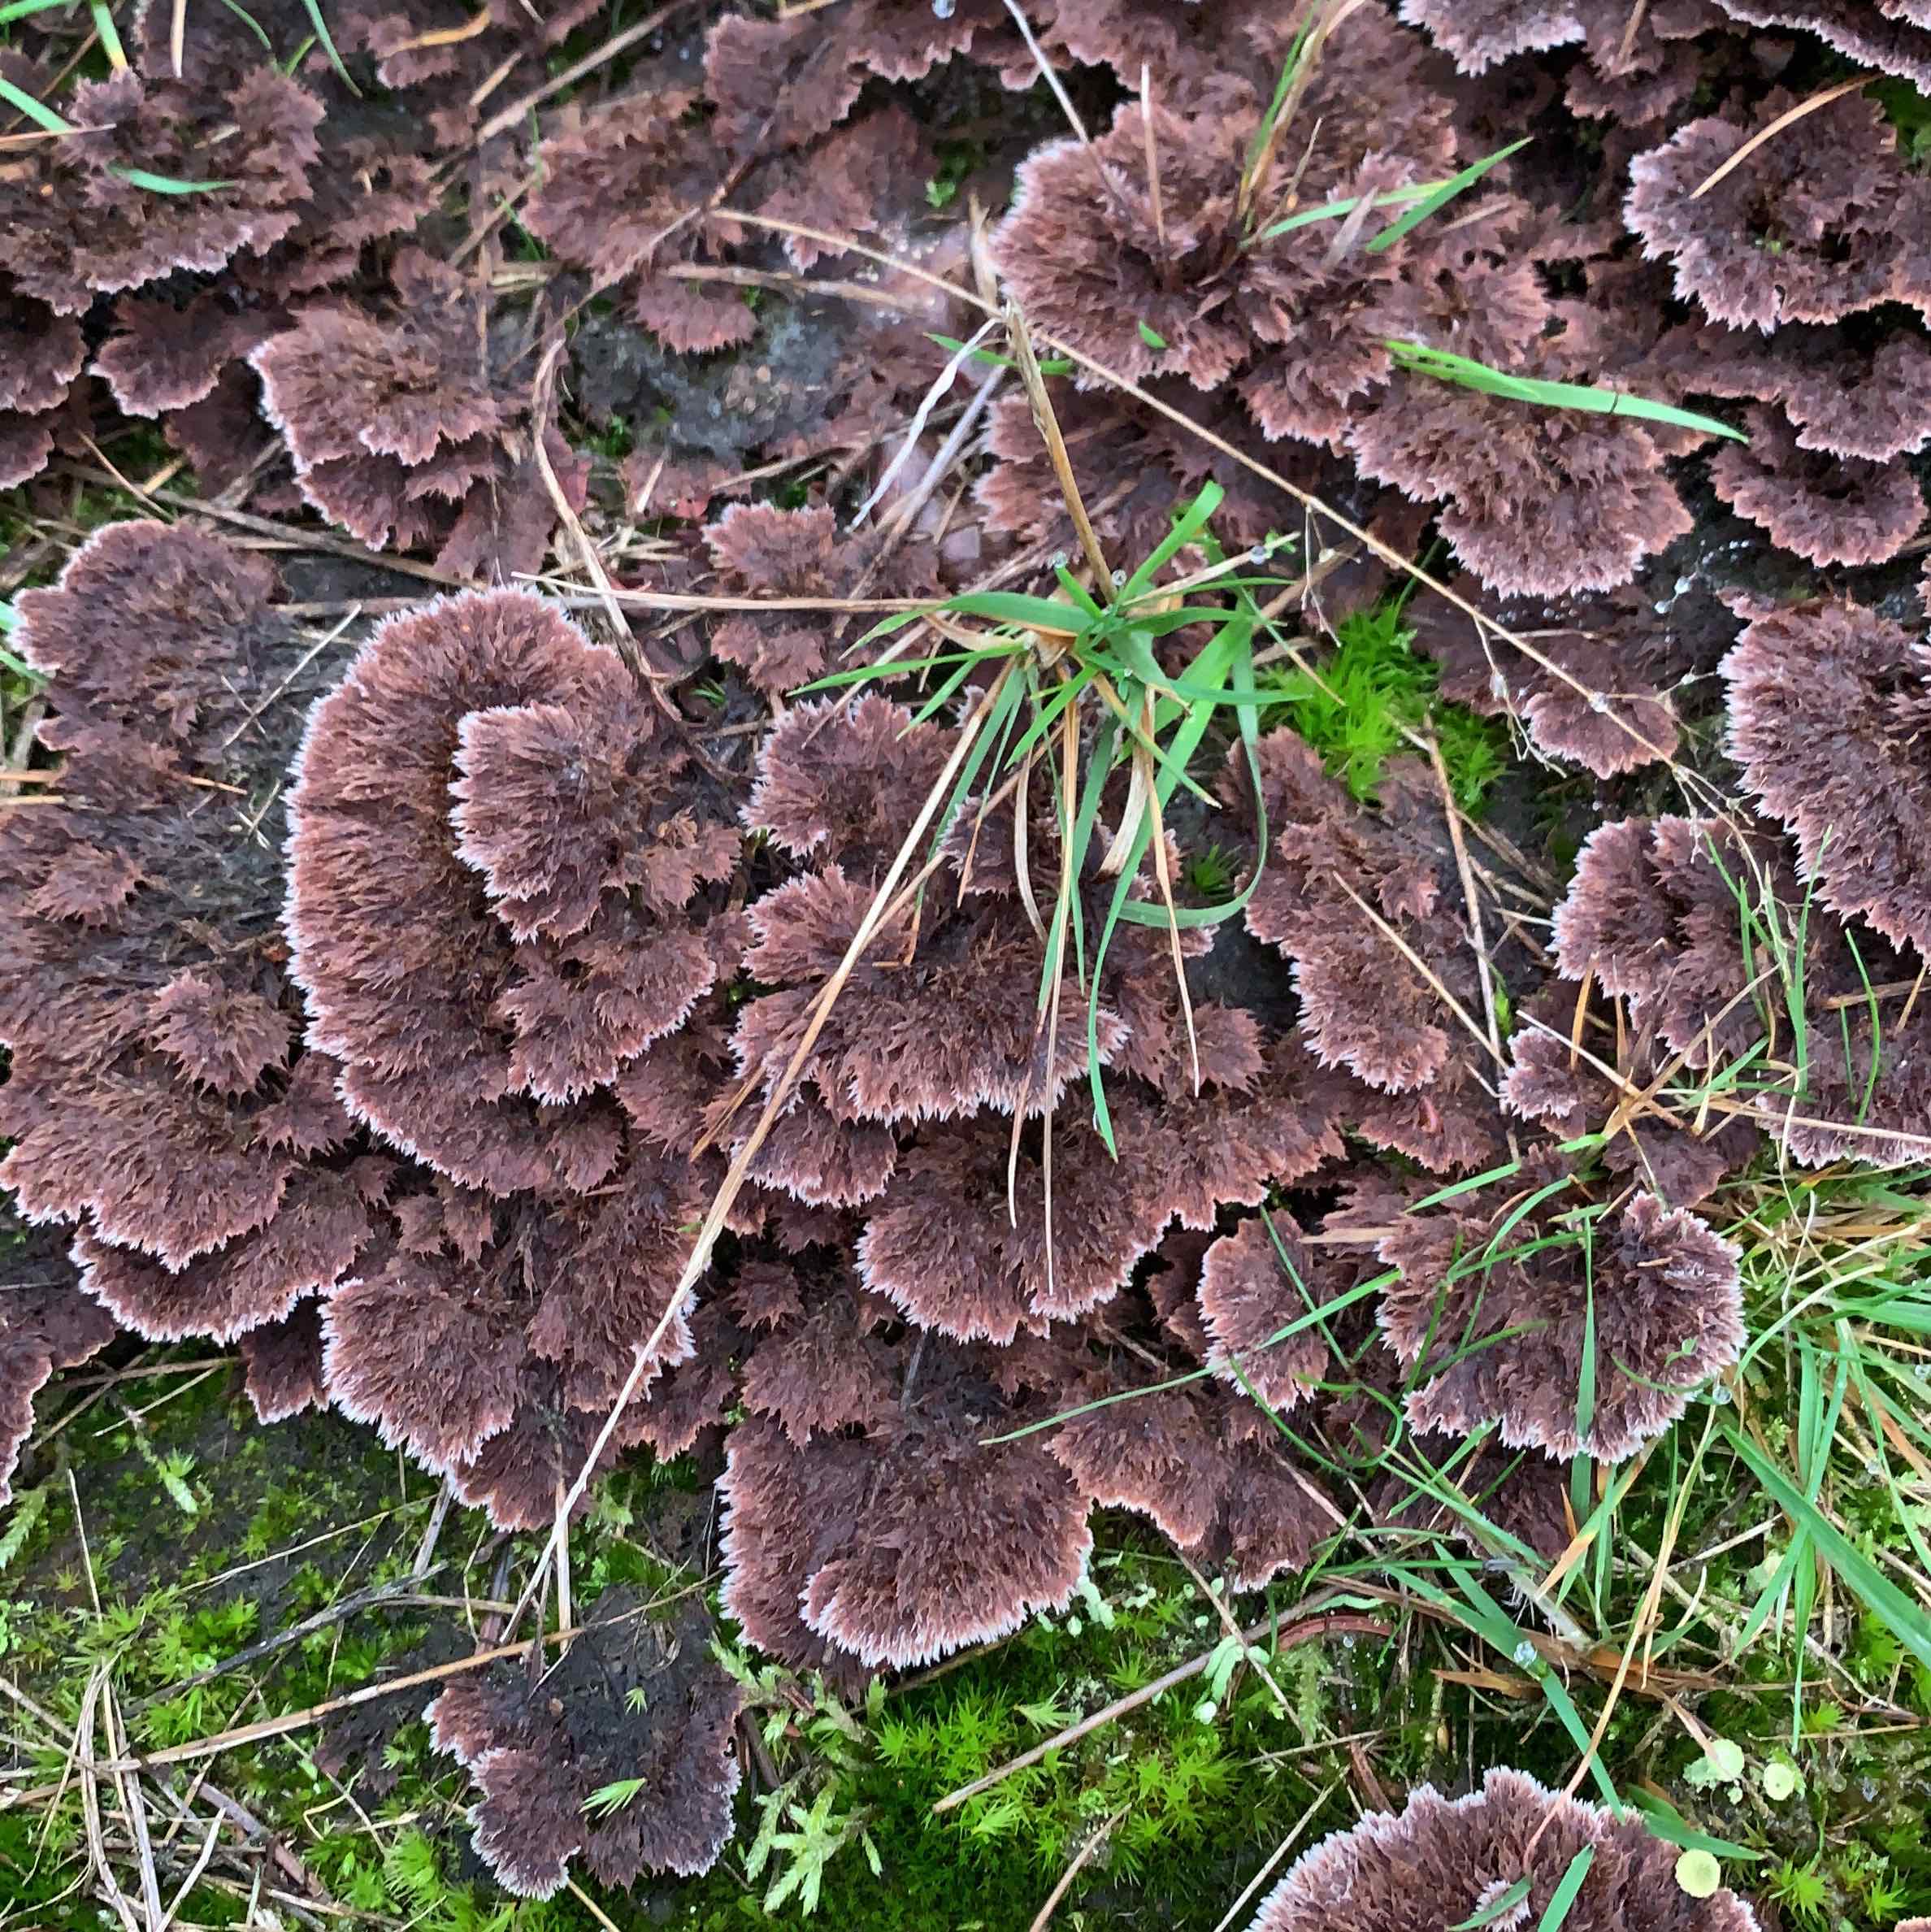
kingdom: Fungi
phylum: Basidiomycota
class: Agaricomycetes
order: Thelephorales
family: Thelephoraceae
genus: Thelephora
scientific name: Thelephora terrestris
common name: fliget frynsesvamp
